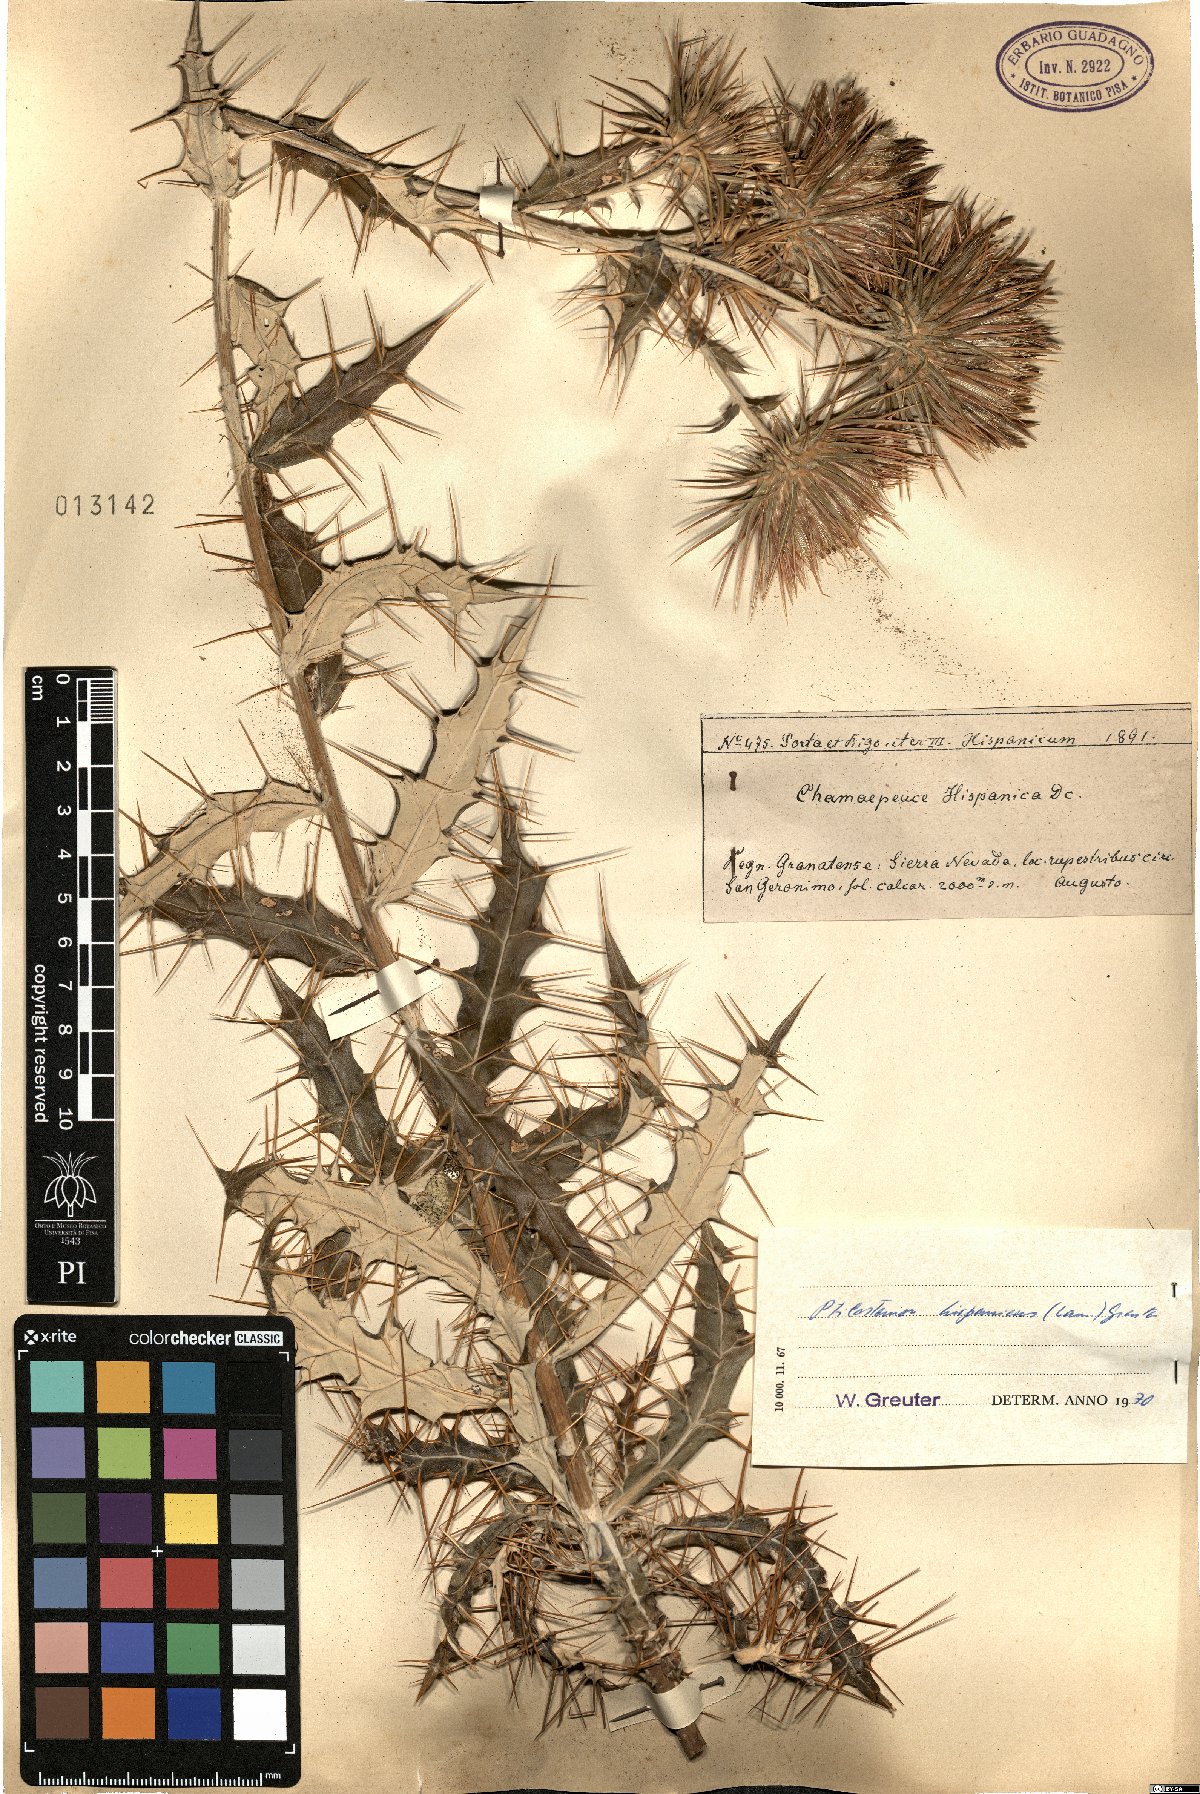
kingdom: Plantae
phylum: Tracheophyta
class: Magnoliopsida
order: Asterales
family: Asteraceae
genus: Ptilostemon
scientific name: Ptilostemon hispanicus
